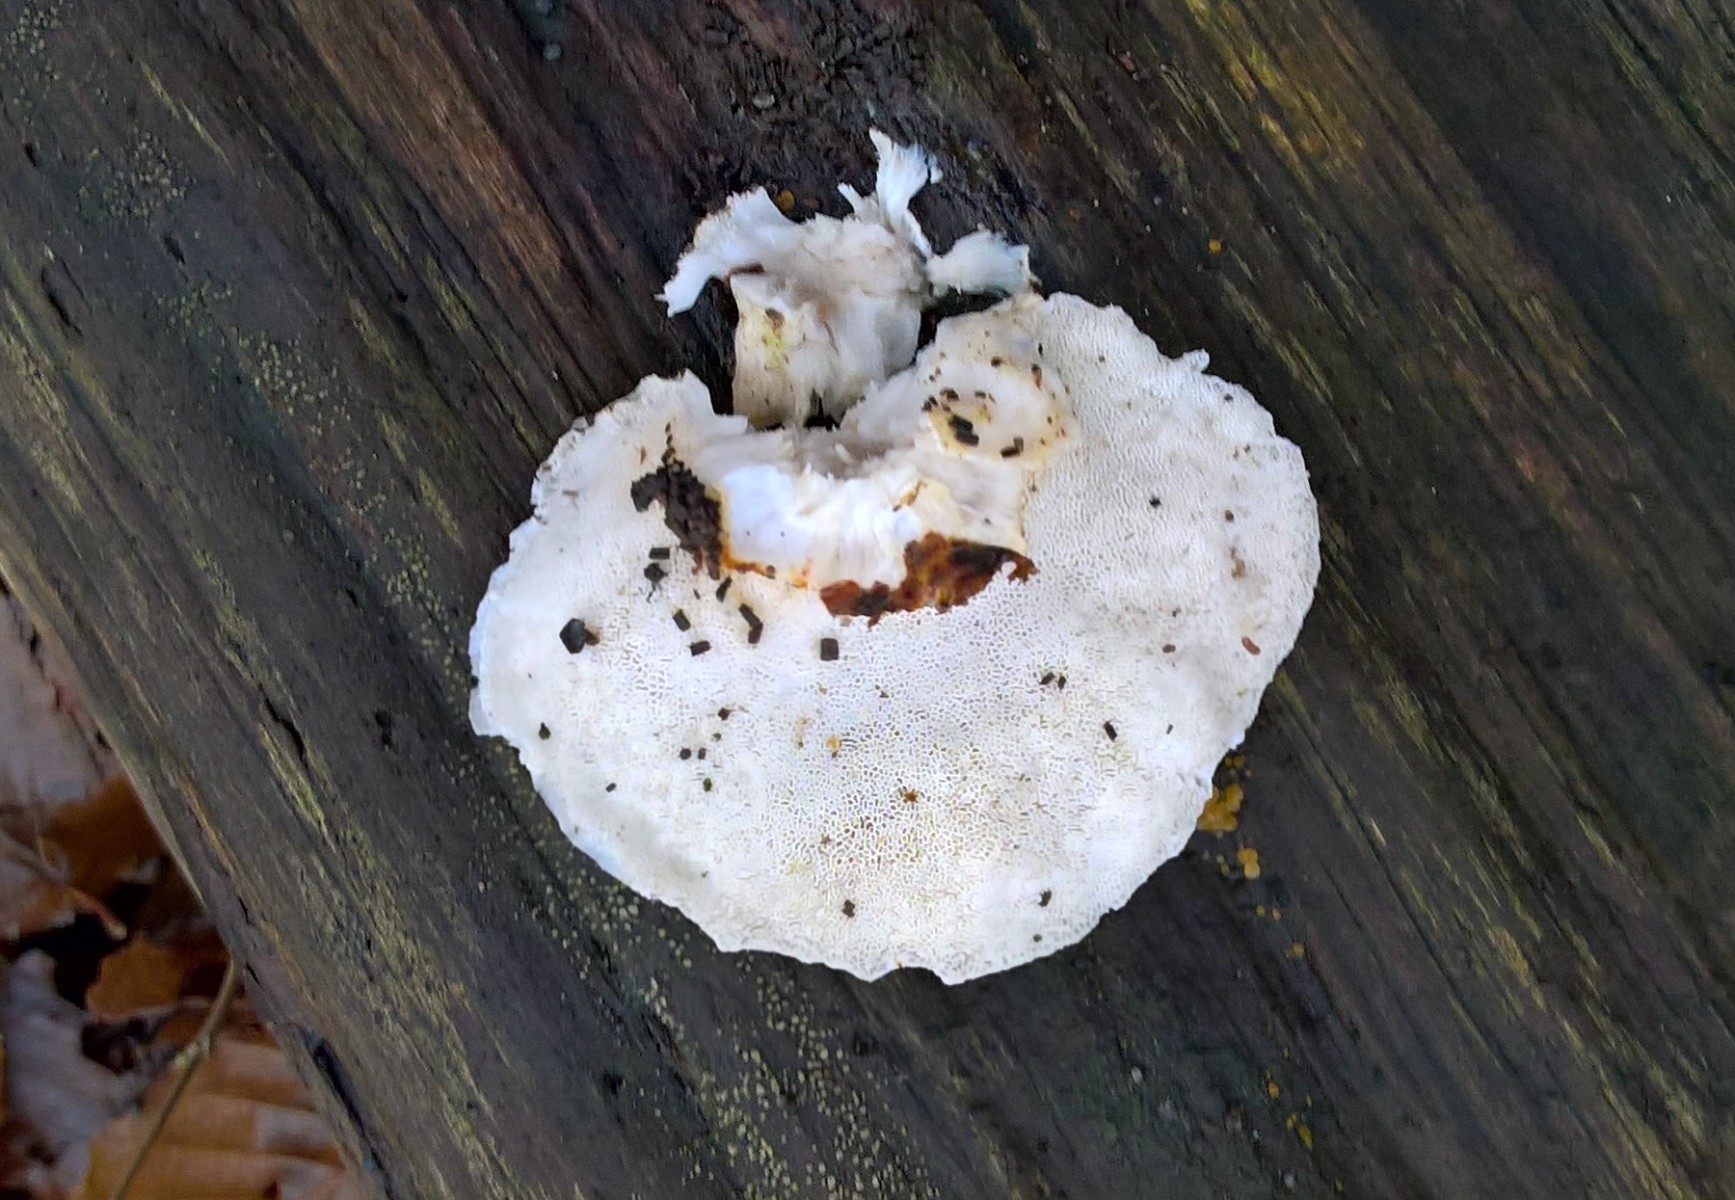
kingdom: Fungi
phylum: Basidiomycota
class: Agaricomycetes
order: Polyporales
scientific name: Polyporales
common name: poresvampordenen
